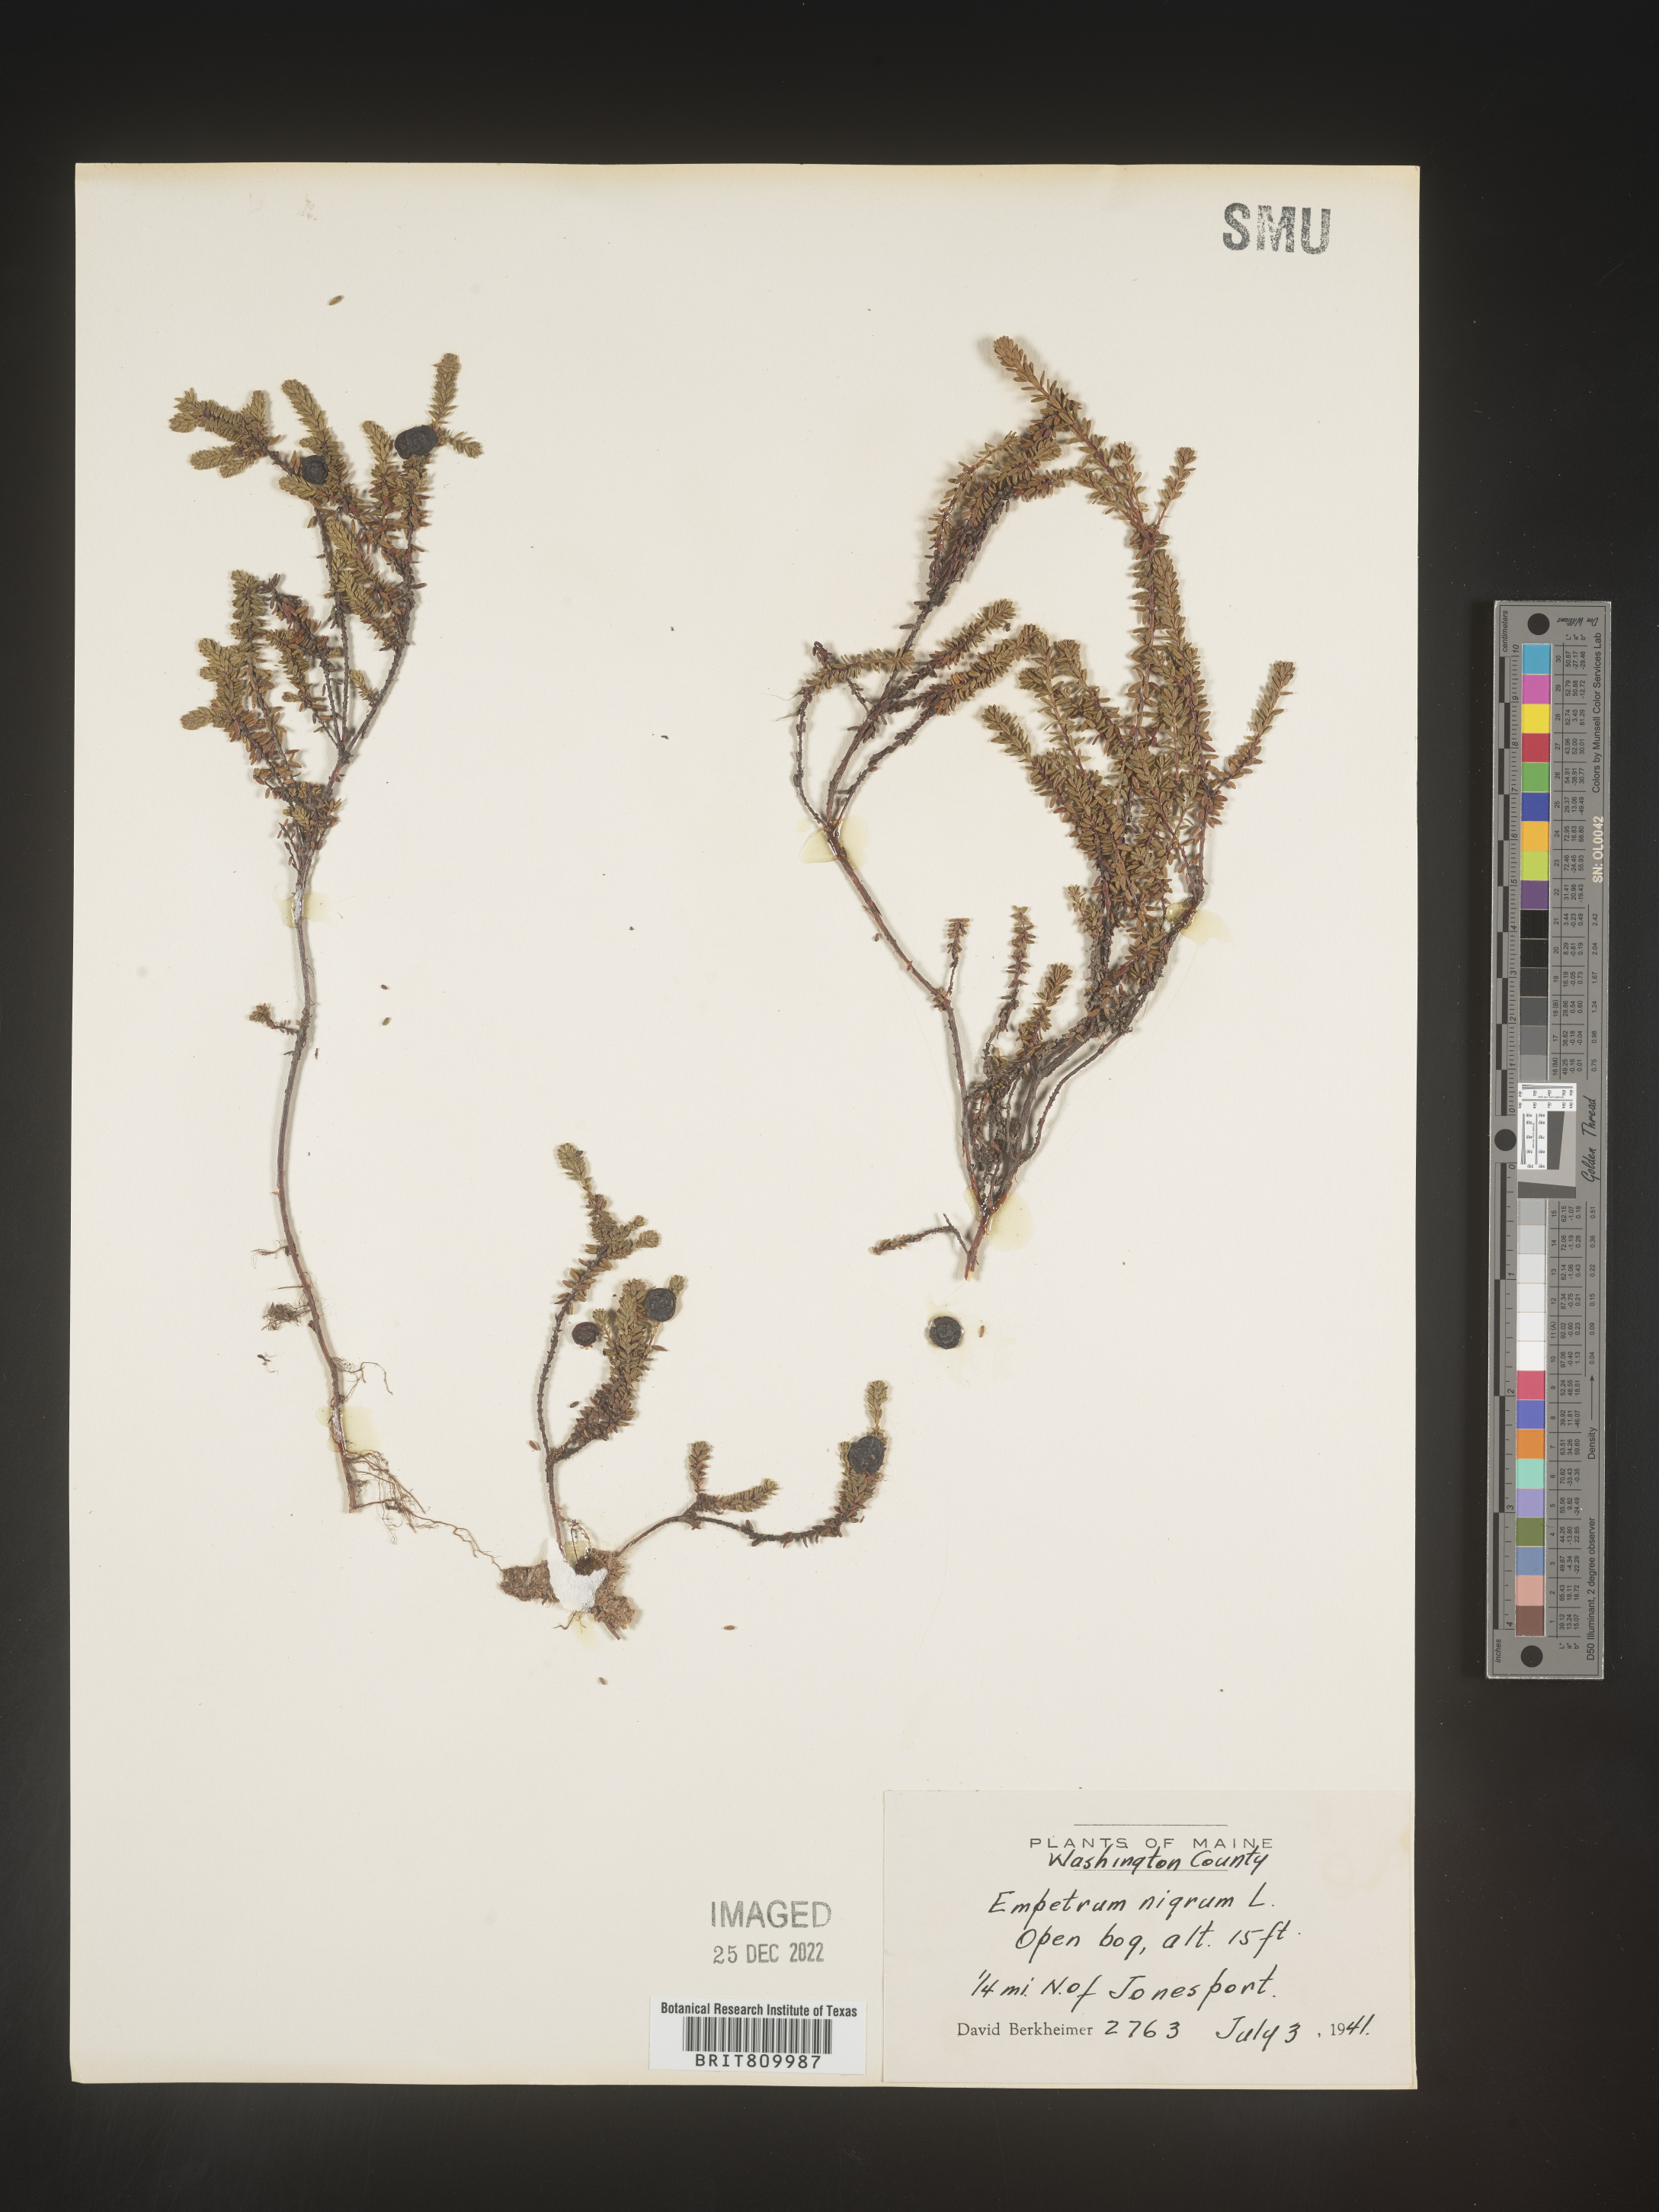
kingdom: Plantae
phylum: Tracheophyta
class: Magnoliopsida
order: Ericales
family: Ericaceae
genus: Empetrum
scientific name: Empetrum
